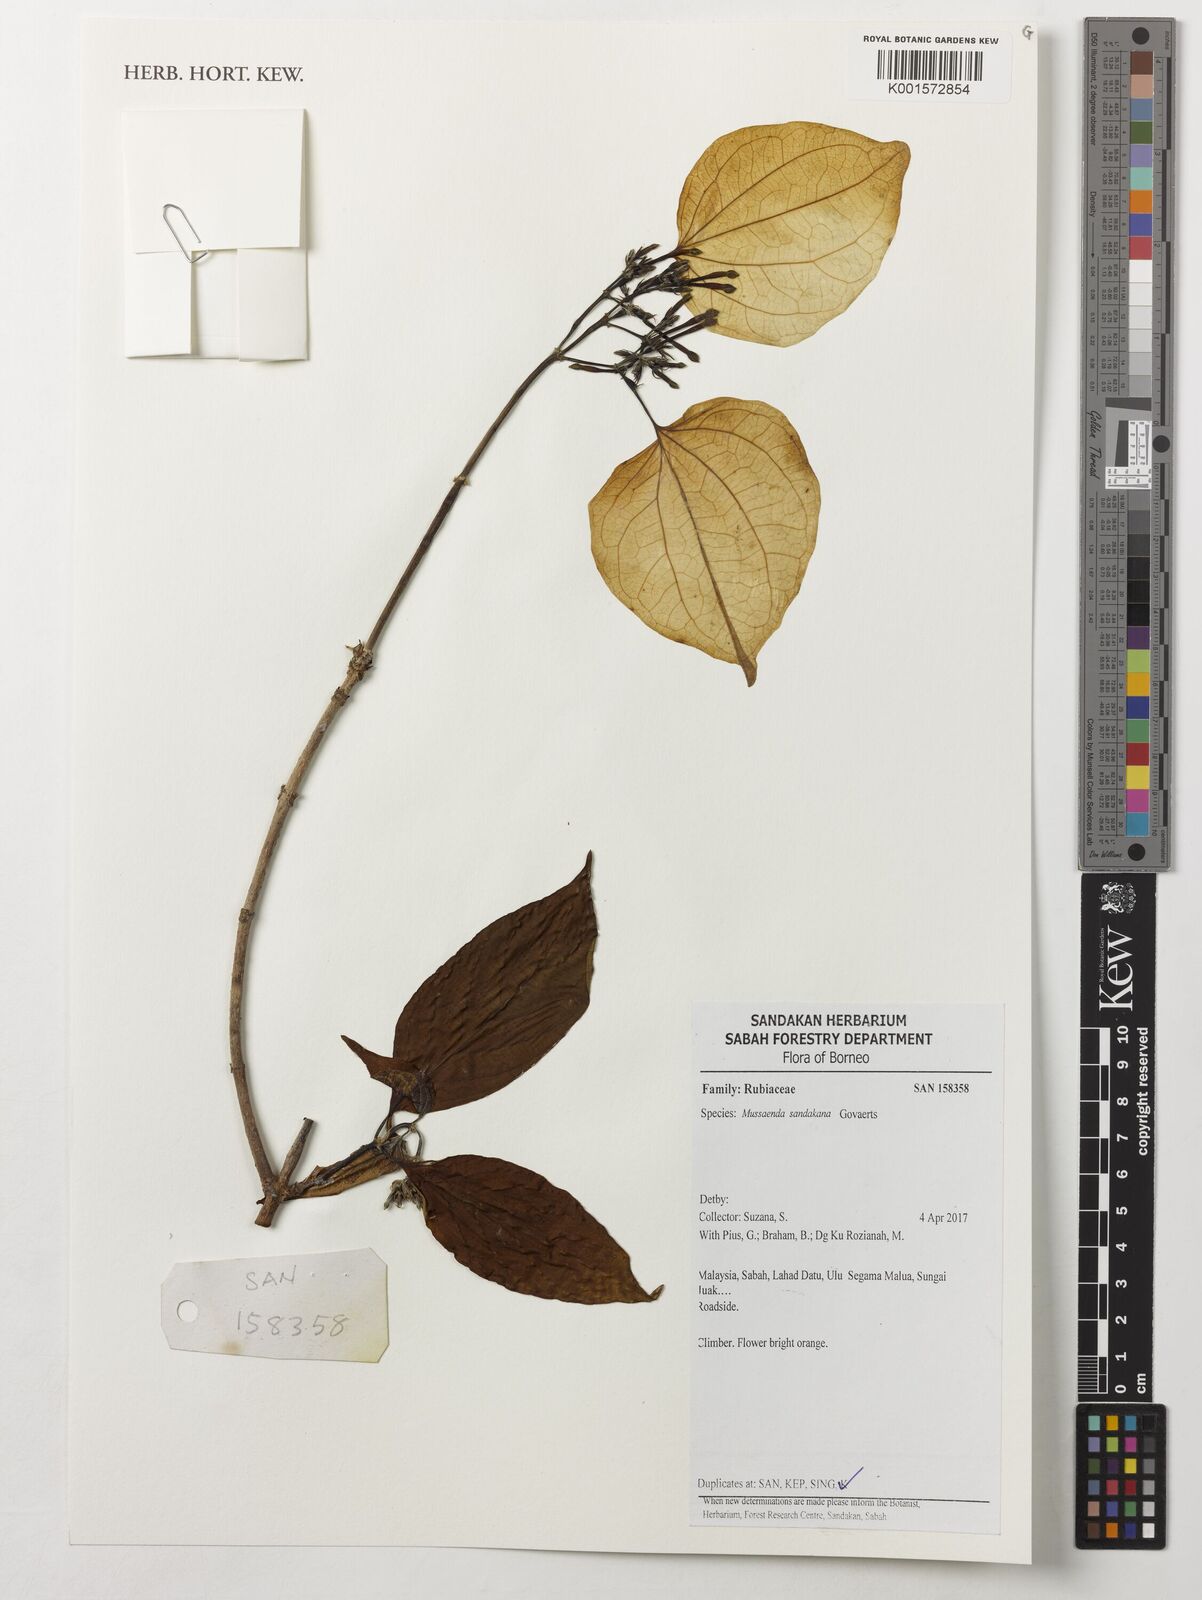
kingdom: Plantae
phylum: Tracheophyta
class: Magnoliopsida
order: Gentianales
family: Rubiaceae
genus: Mussaenda
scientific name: Mussaenda sandakana
